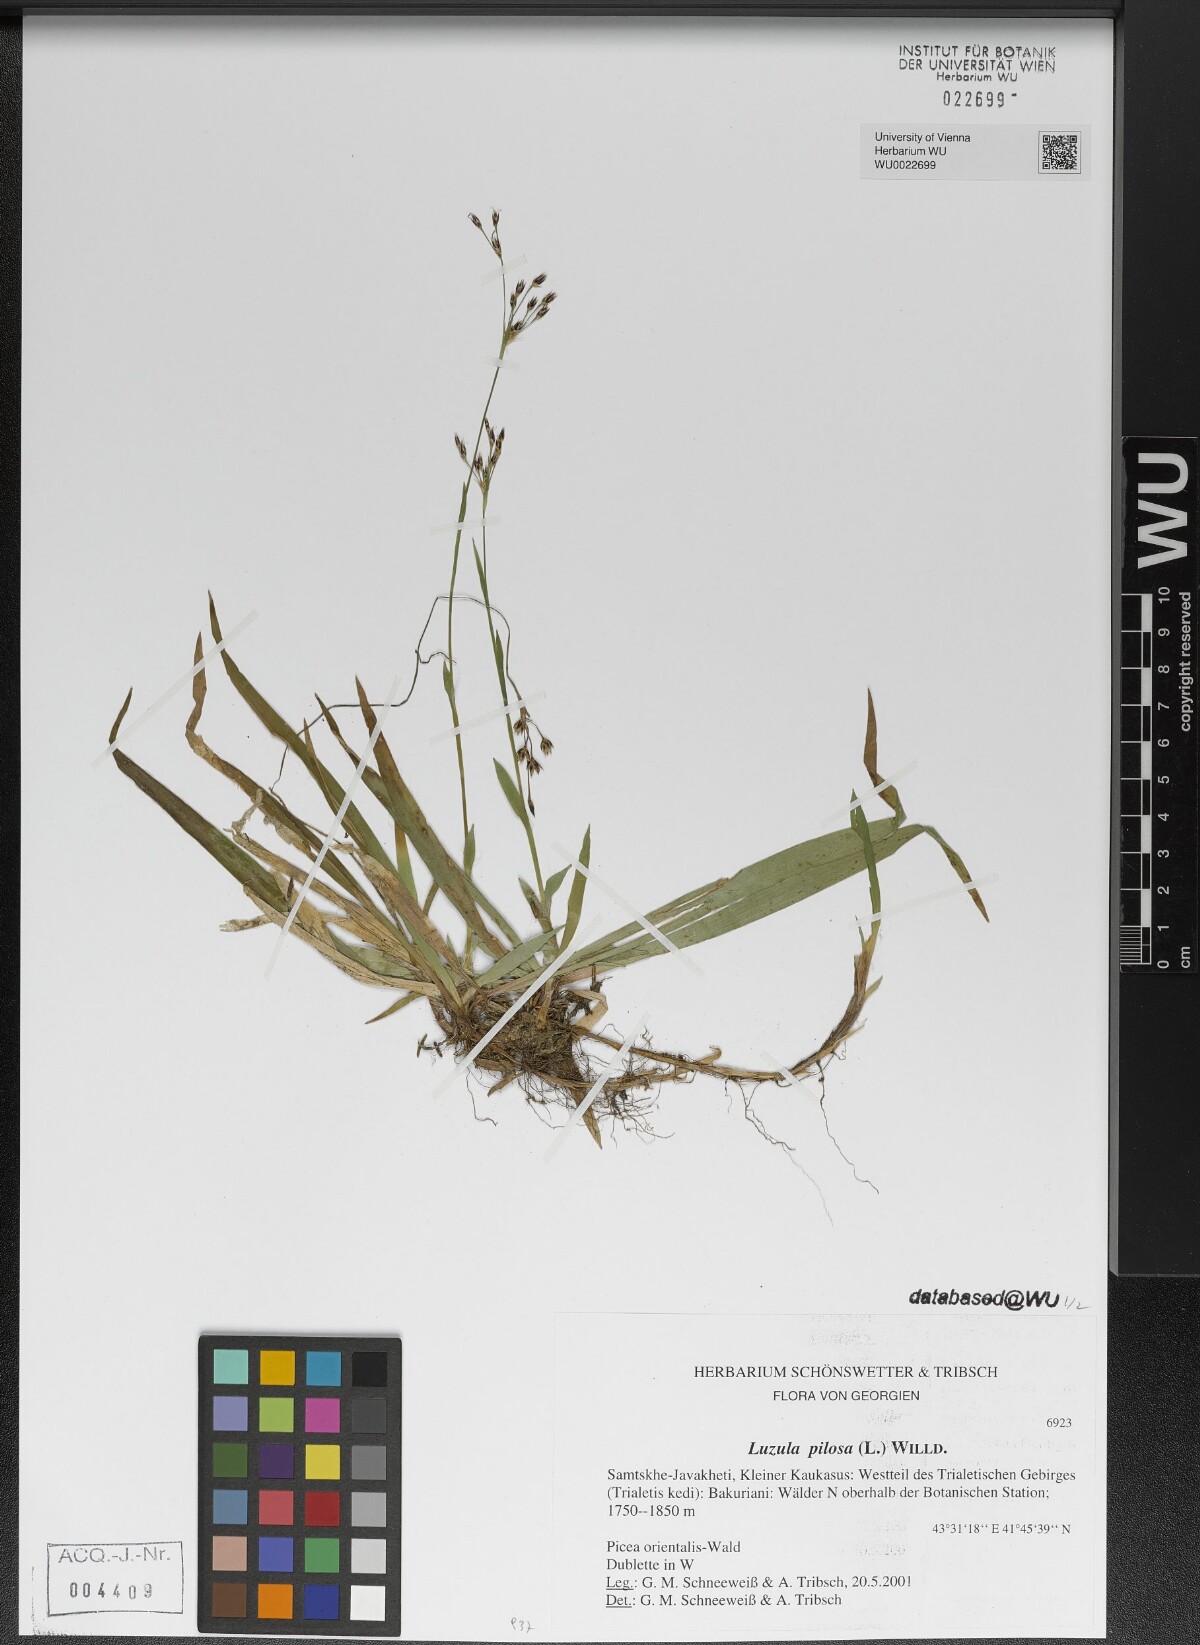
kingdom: Plantae
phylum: Tracheophyta
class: Liliopsida
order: Poales
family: Juncaceae
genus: Luzula
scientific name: Luzula pilosa
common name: Hairy wood-rush
